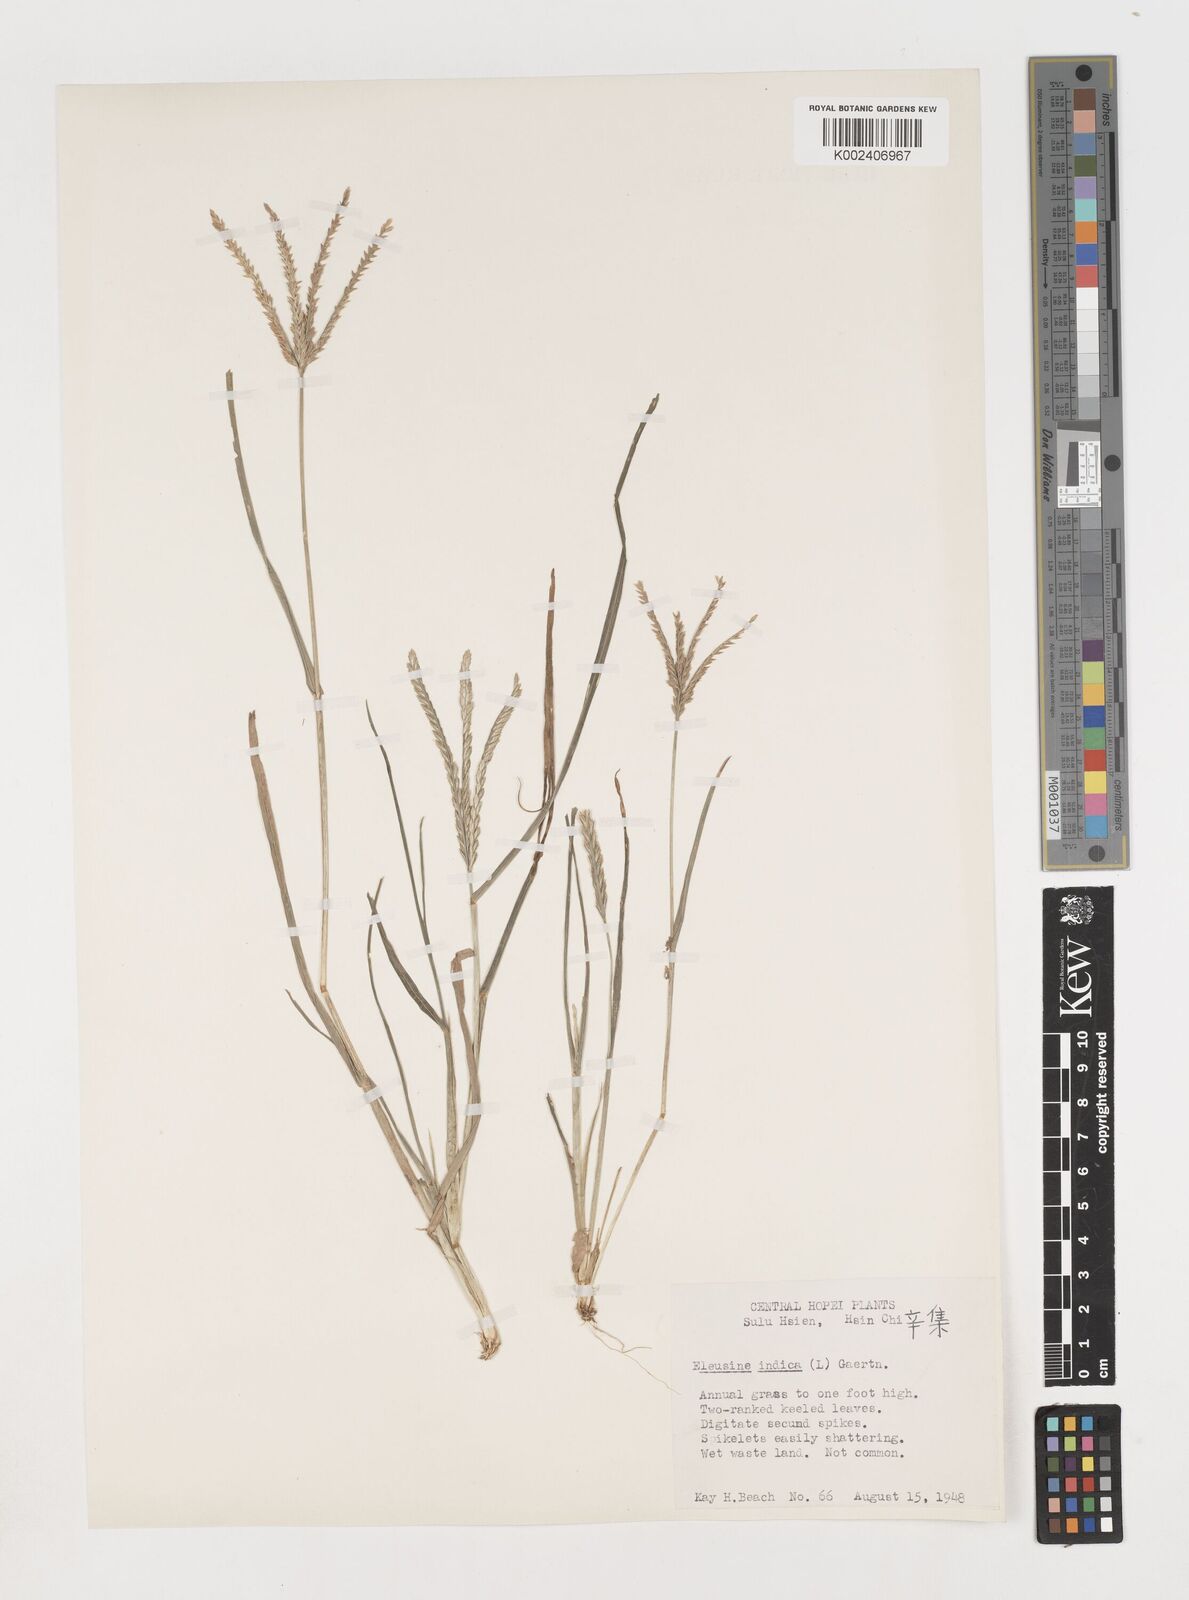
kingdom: Plantae
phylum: Tracheophyta
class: Liliopsida
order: Poales
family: Poaceae
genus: Eleusine
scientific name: Eleusine indica
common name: Yard-grass
